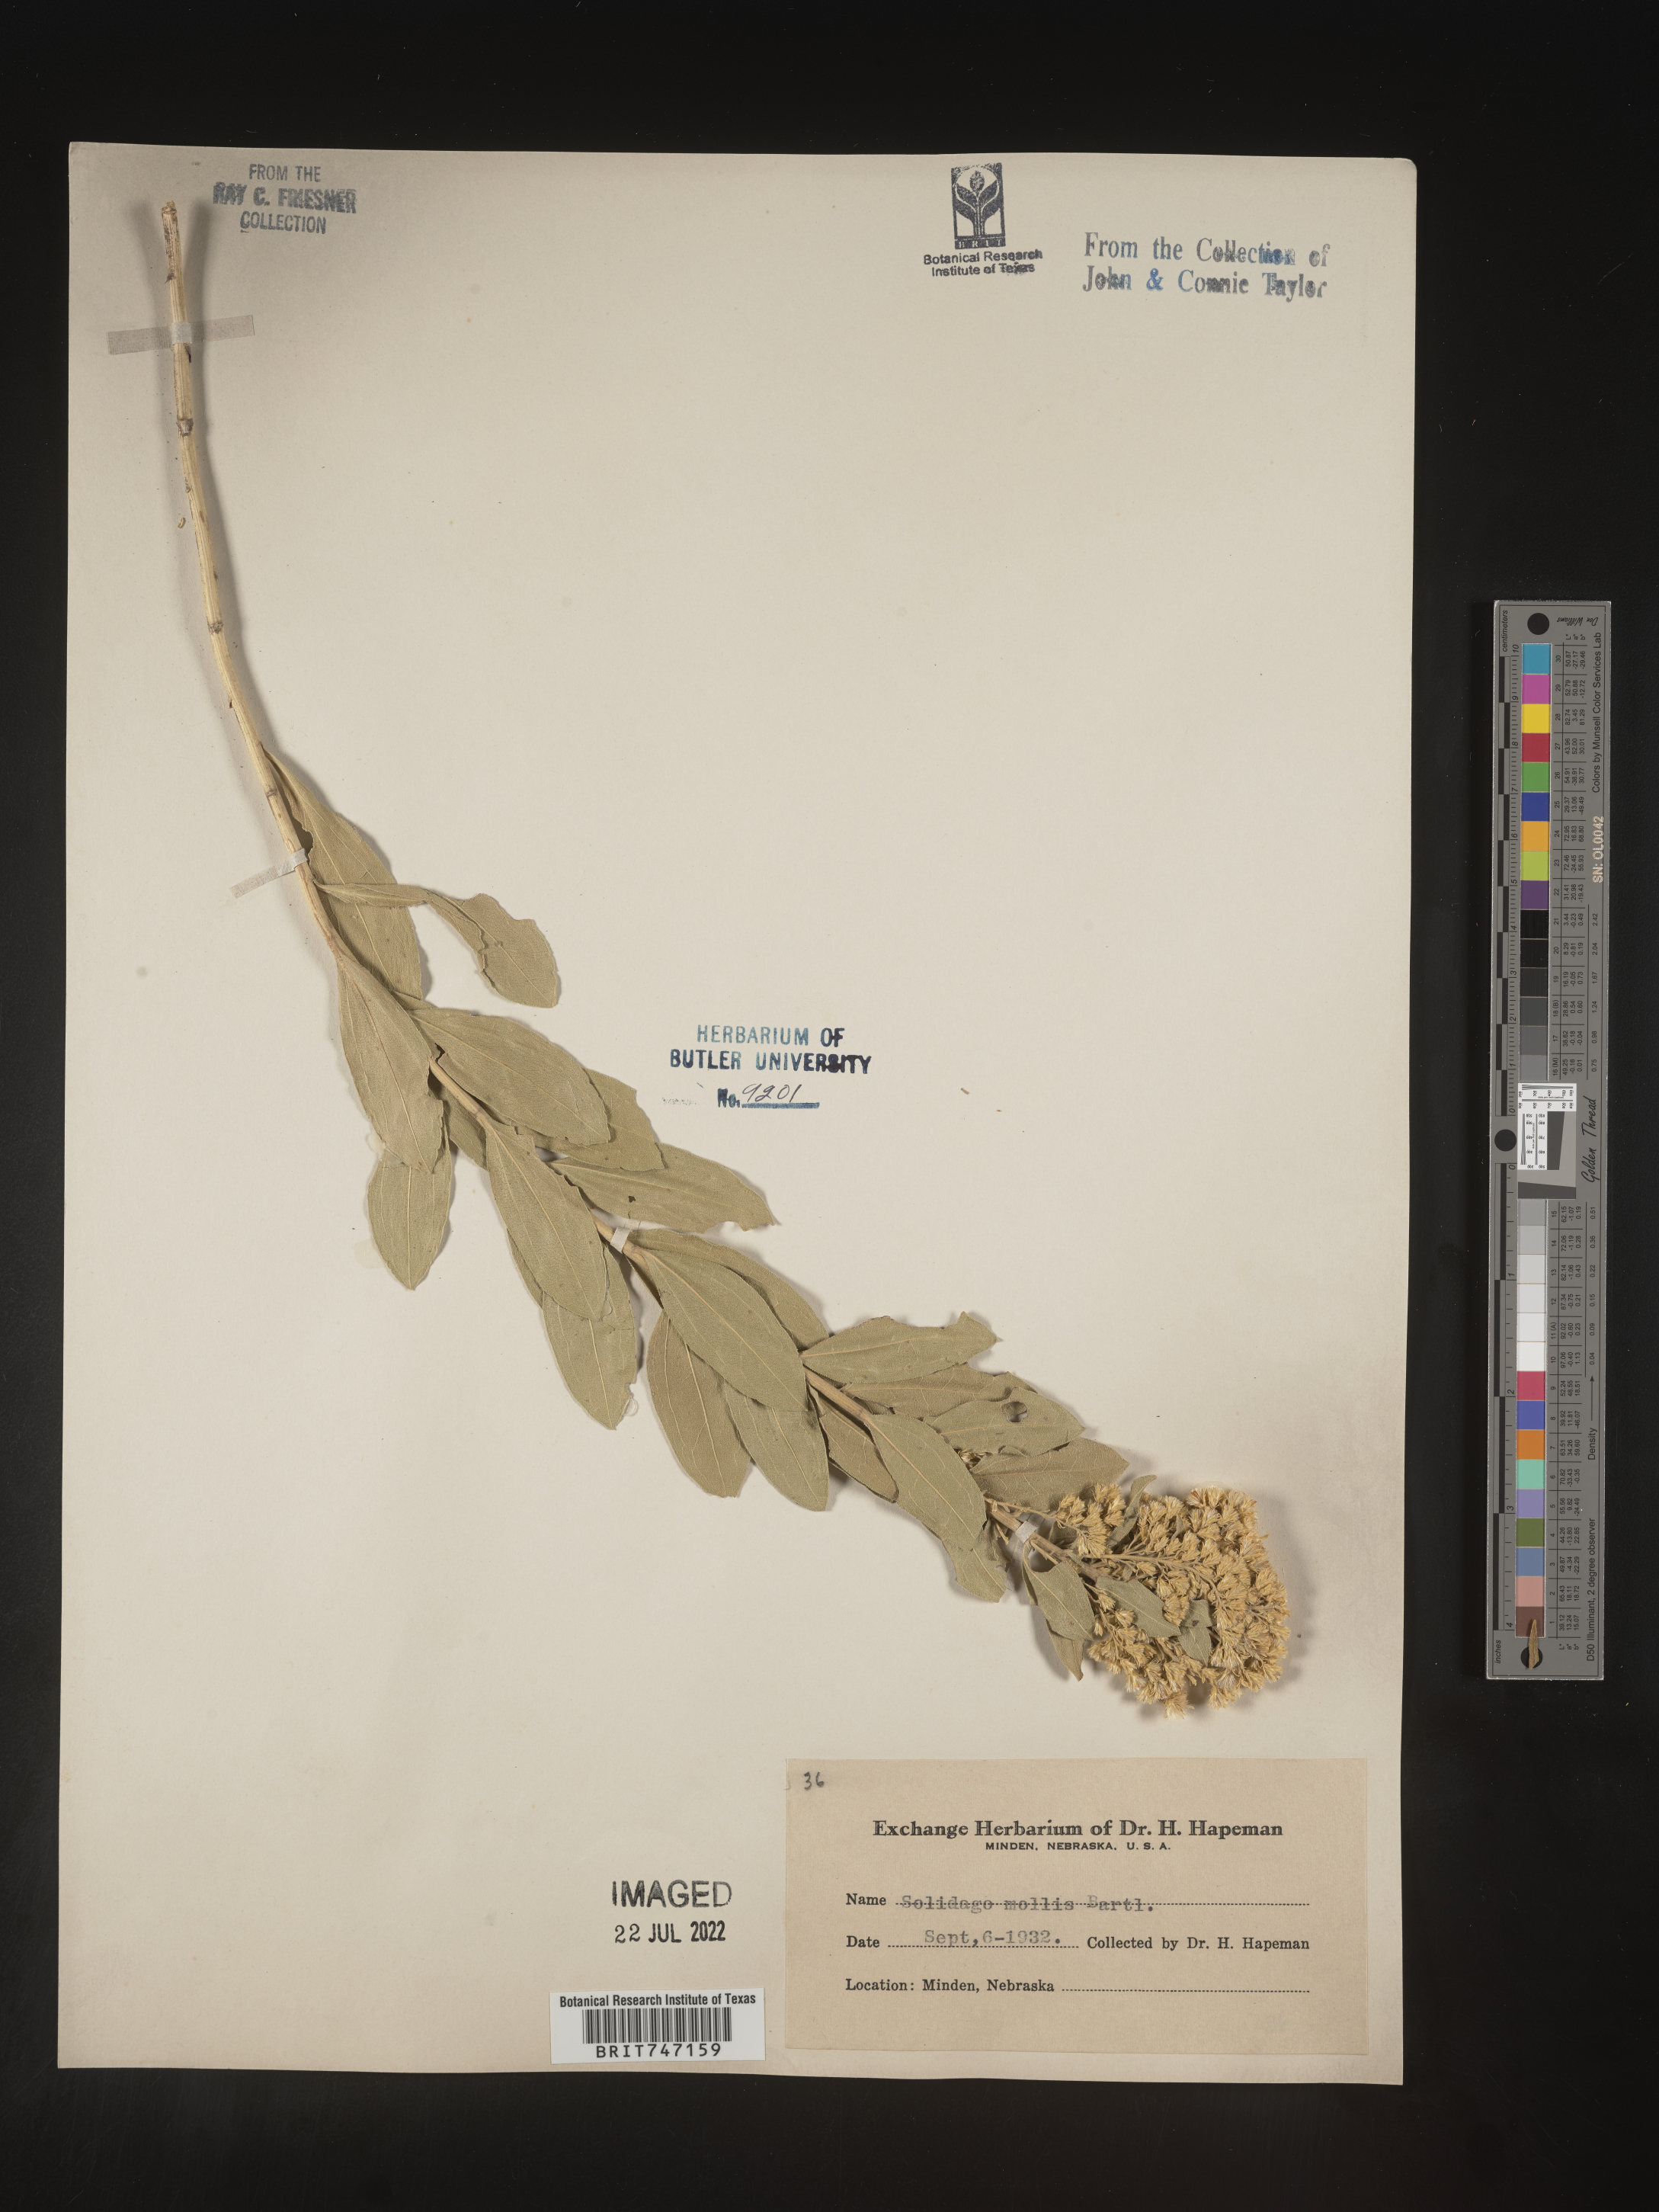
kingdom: Plantae
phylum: Tracheophyta
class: Magnoliopsida
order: Asterales
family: Asteraceae
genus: Solidago
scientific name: Solidago mollis
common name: Ashly goldenrod
